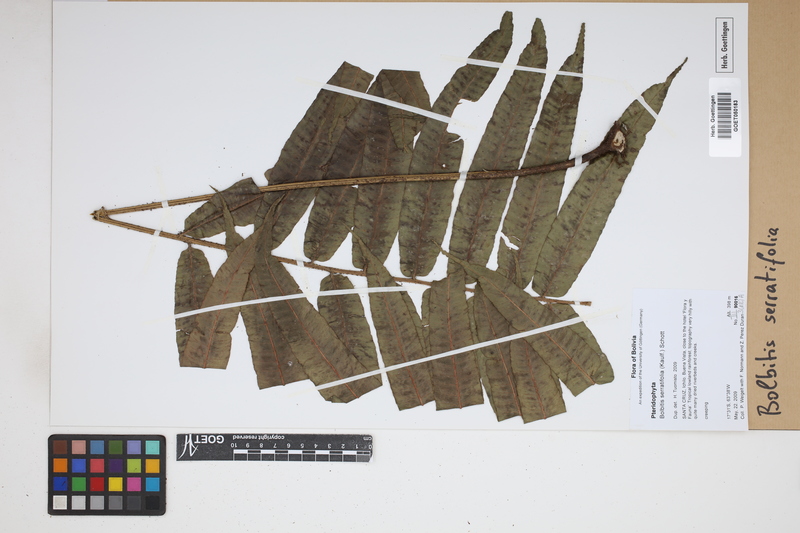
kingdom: Plantae
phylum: Tracheophyta
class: Polypodiopsida
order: Polypodiales
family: Dryopteridaceae
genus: Bolbitis
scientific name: Bolbitis serratifolia
